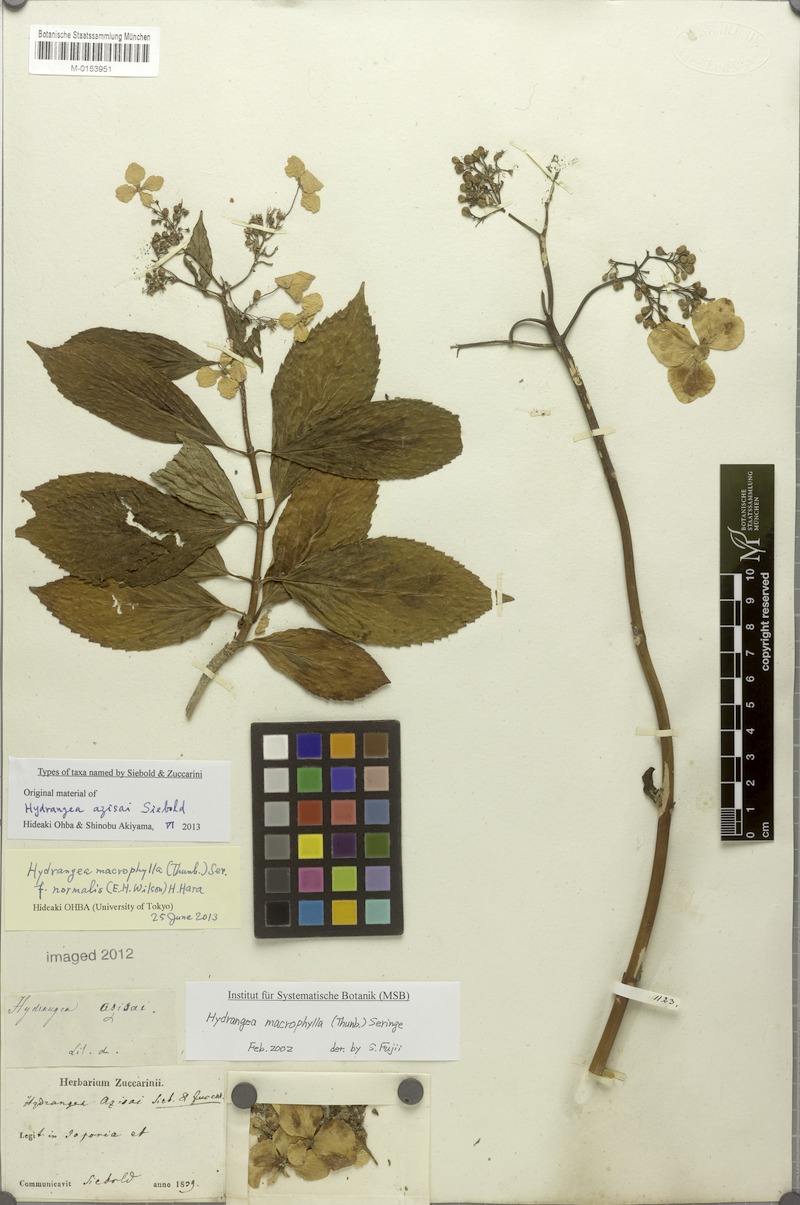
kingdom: Plantae
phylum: Tracheophyta
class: Magnoliopsida
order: Cornales
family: Hydrangeaceae
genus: Hydrangea
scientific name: Hydrangea macrophylla
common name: Hydrangea
